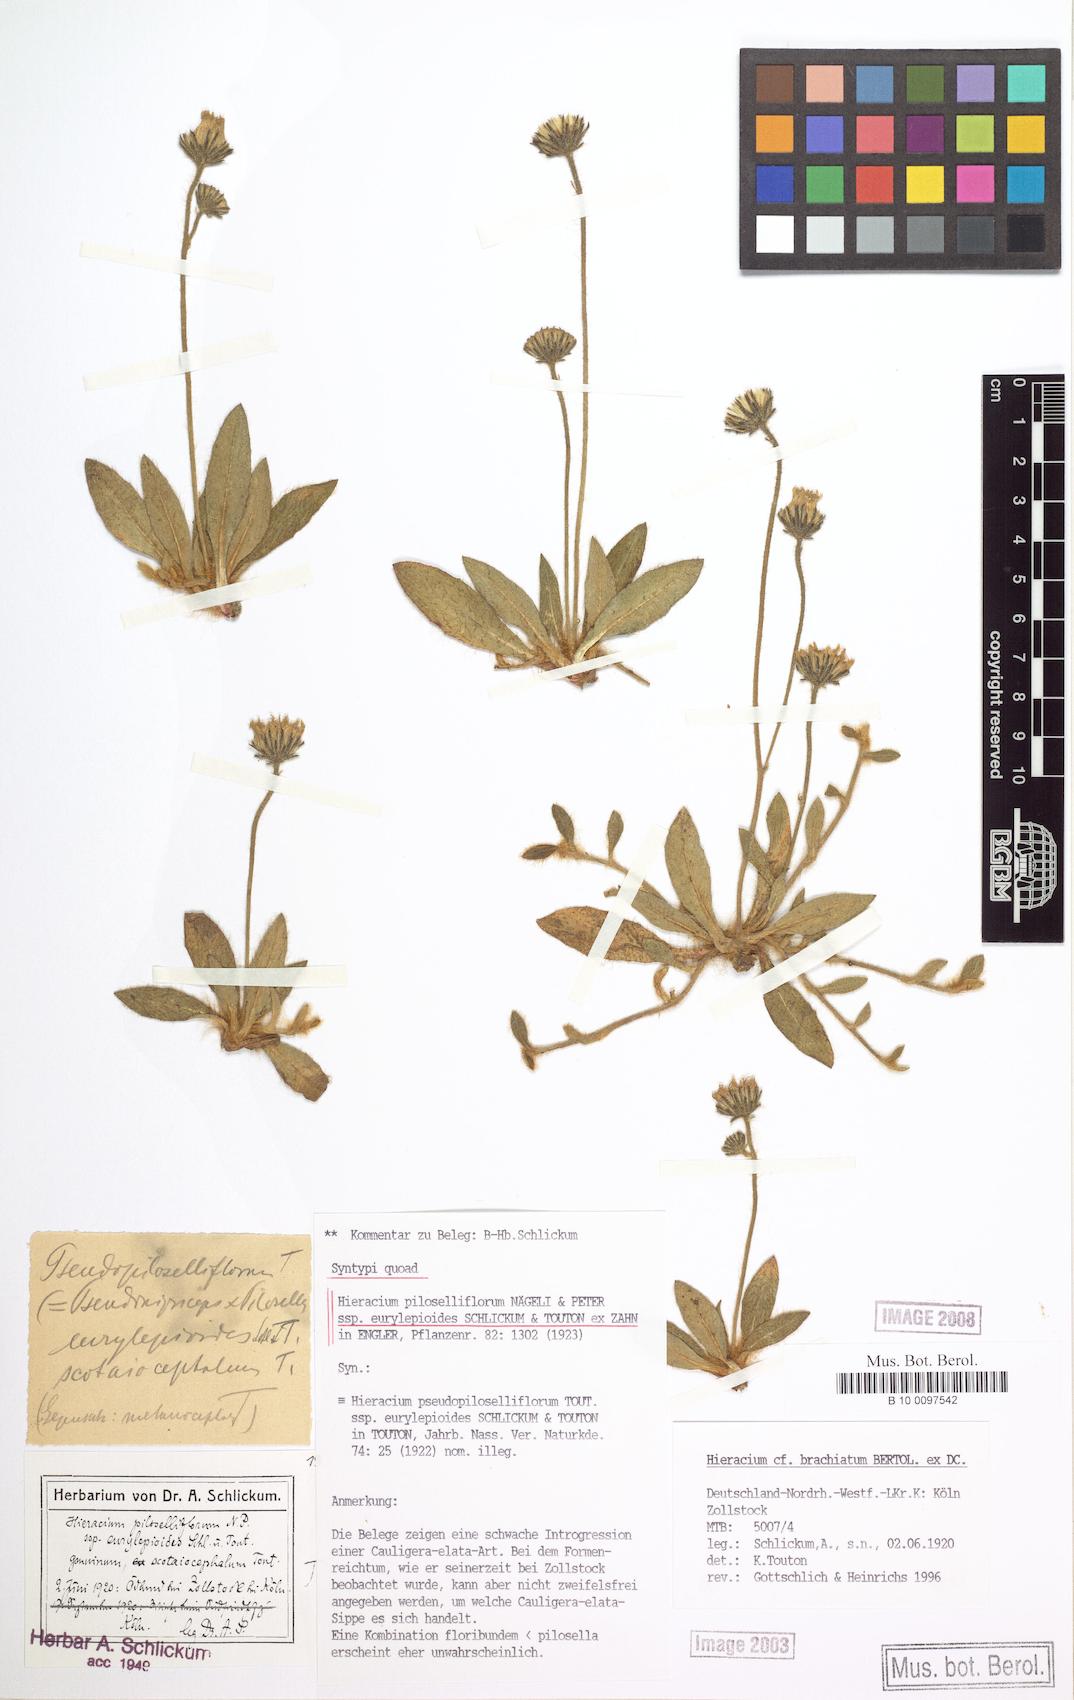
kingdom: Plantae
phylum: Tracheophyta
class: Magnoliopsida
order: Asterales
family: Asteraceae
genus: Pilosella
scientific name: Pilosella piloselliflora
